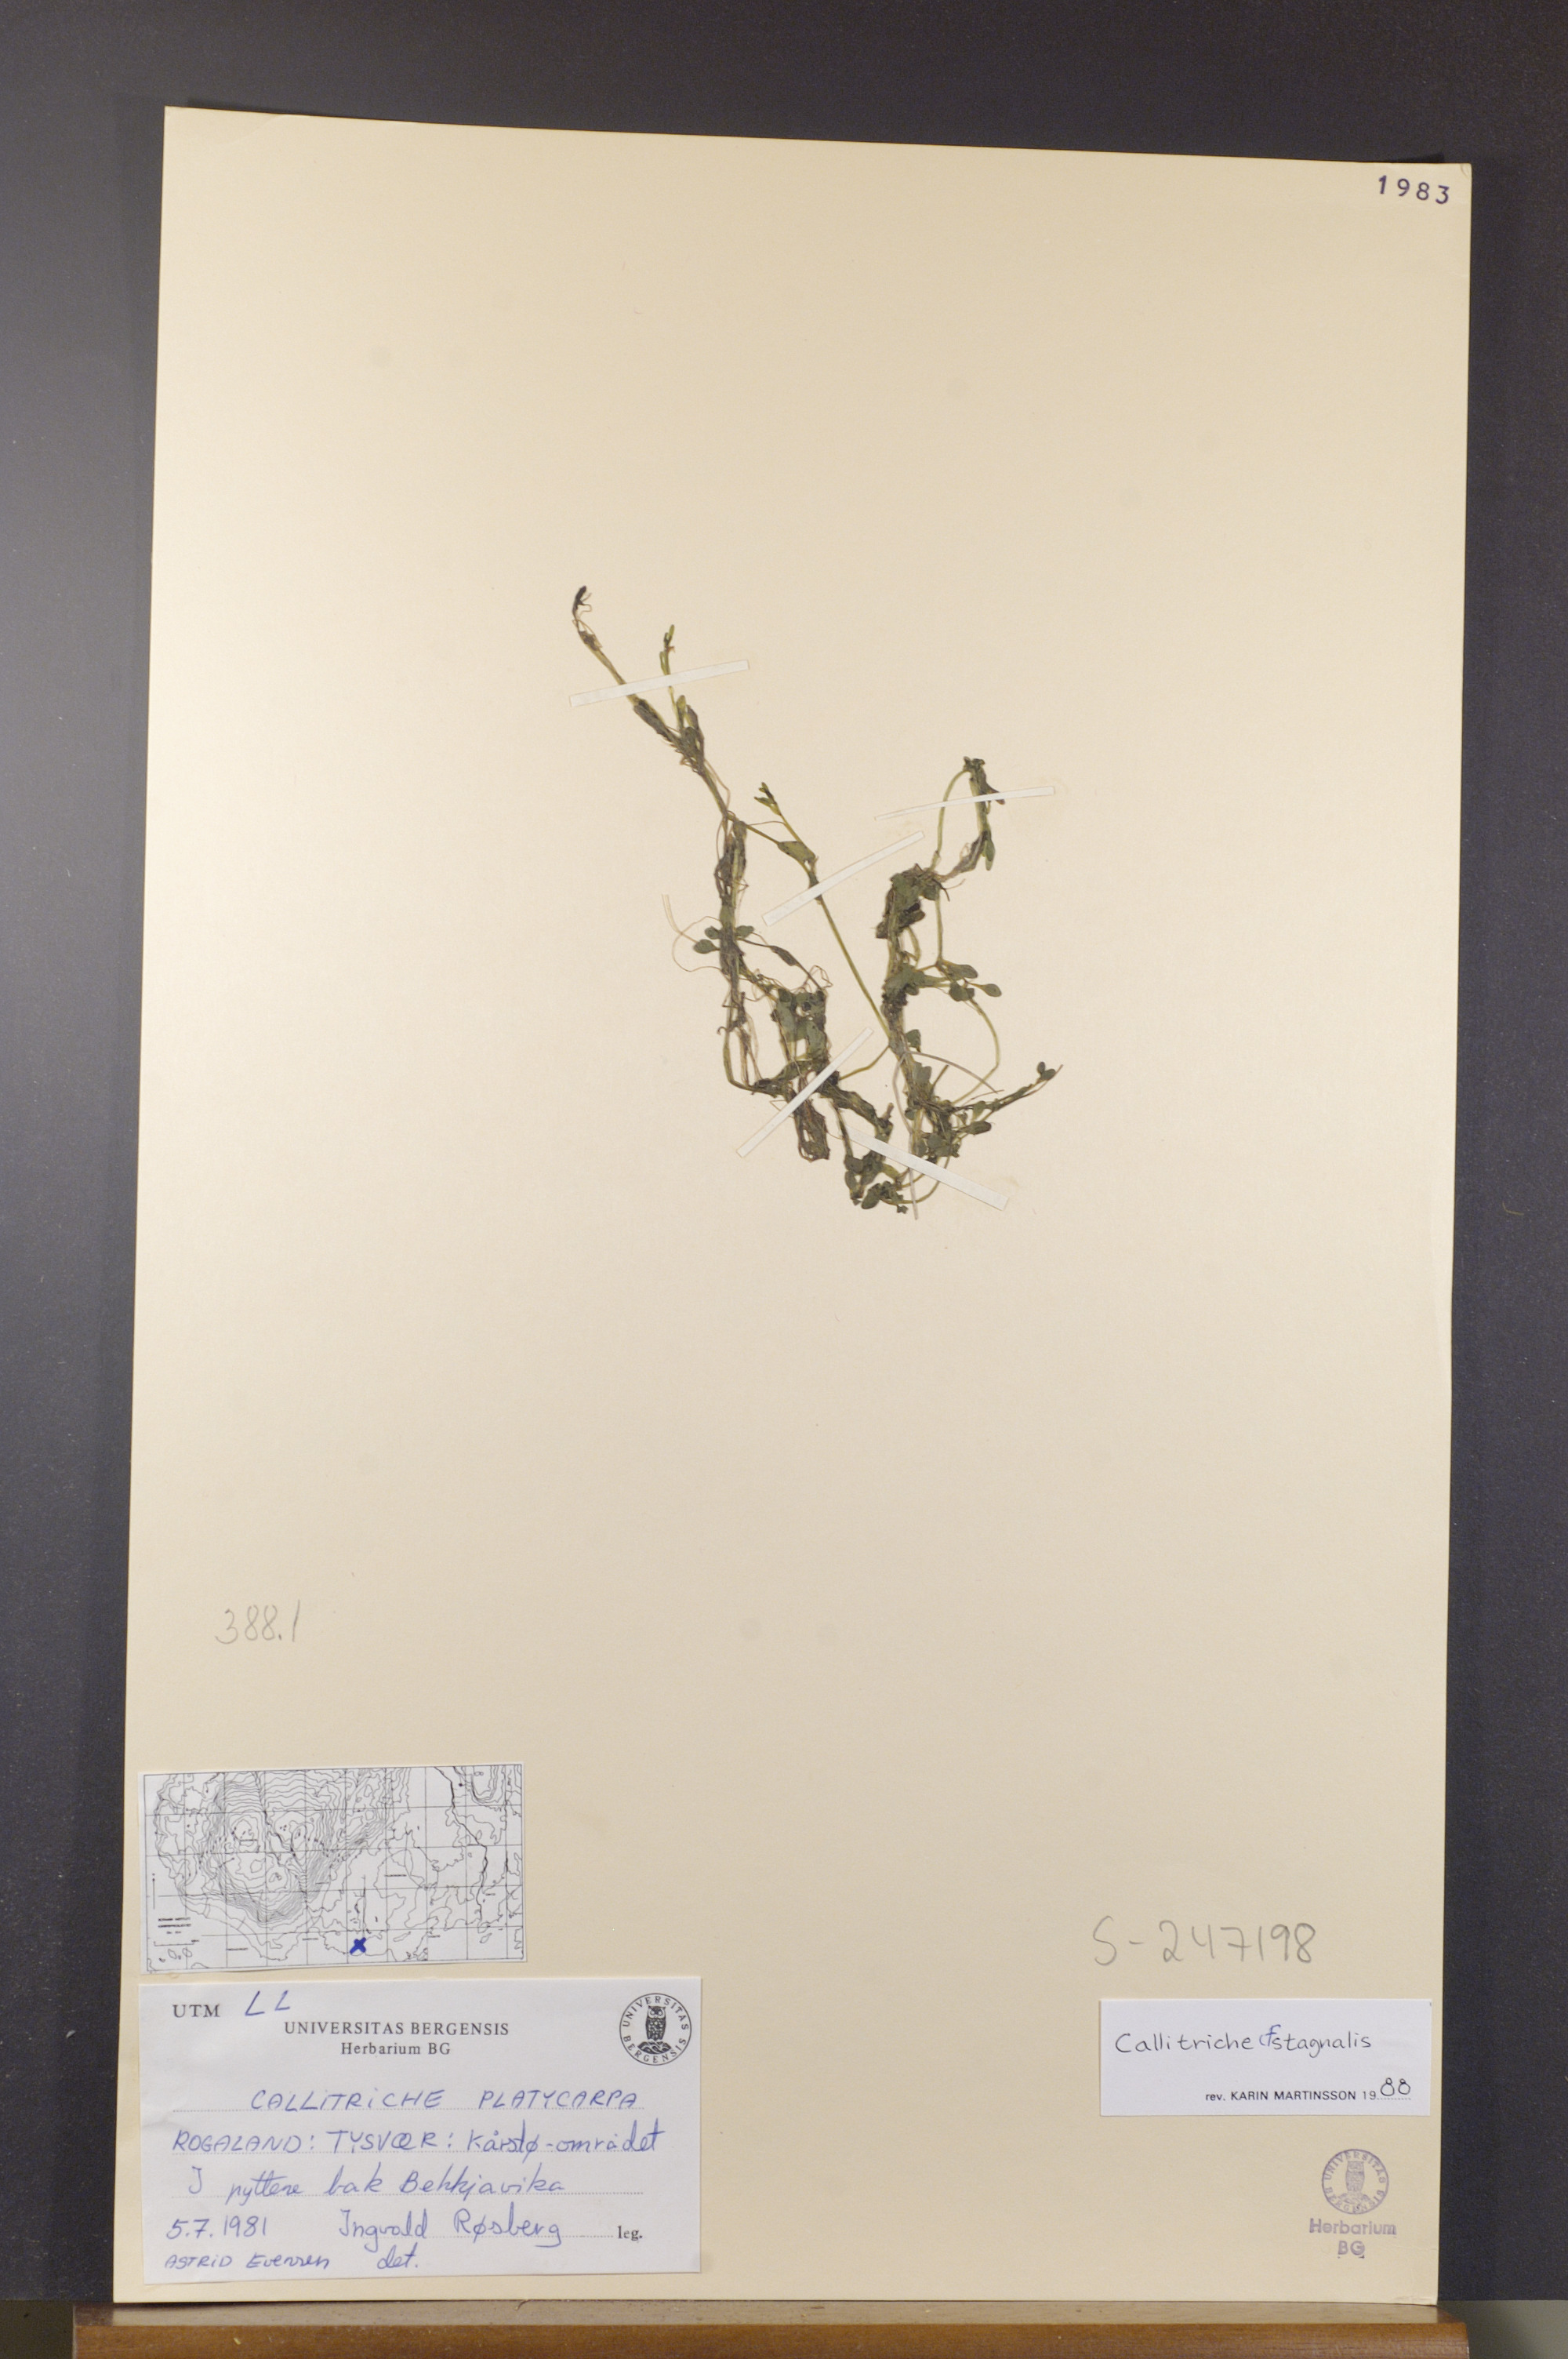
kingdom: Plantae
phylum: Tracheophyta
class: Magnoliopsida
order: Lamiales
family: Plantaginaceae
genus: Callitriche
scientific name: Callitriche stagnalis
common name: Common water-starwort
